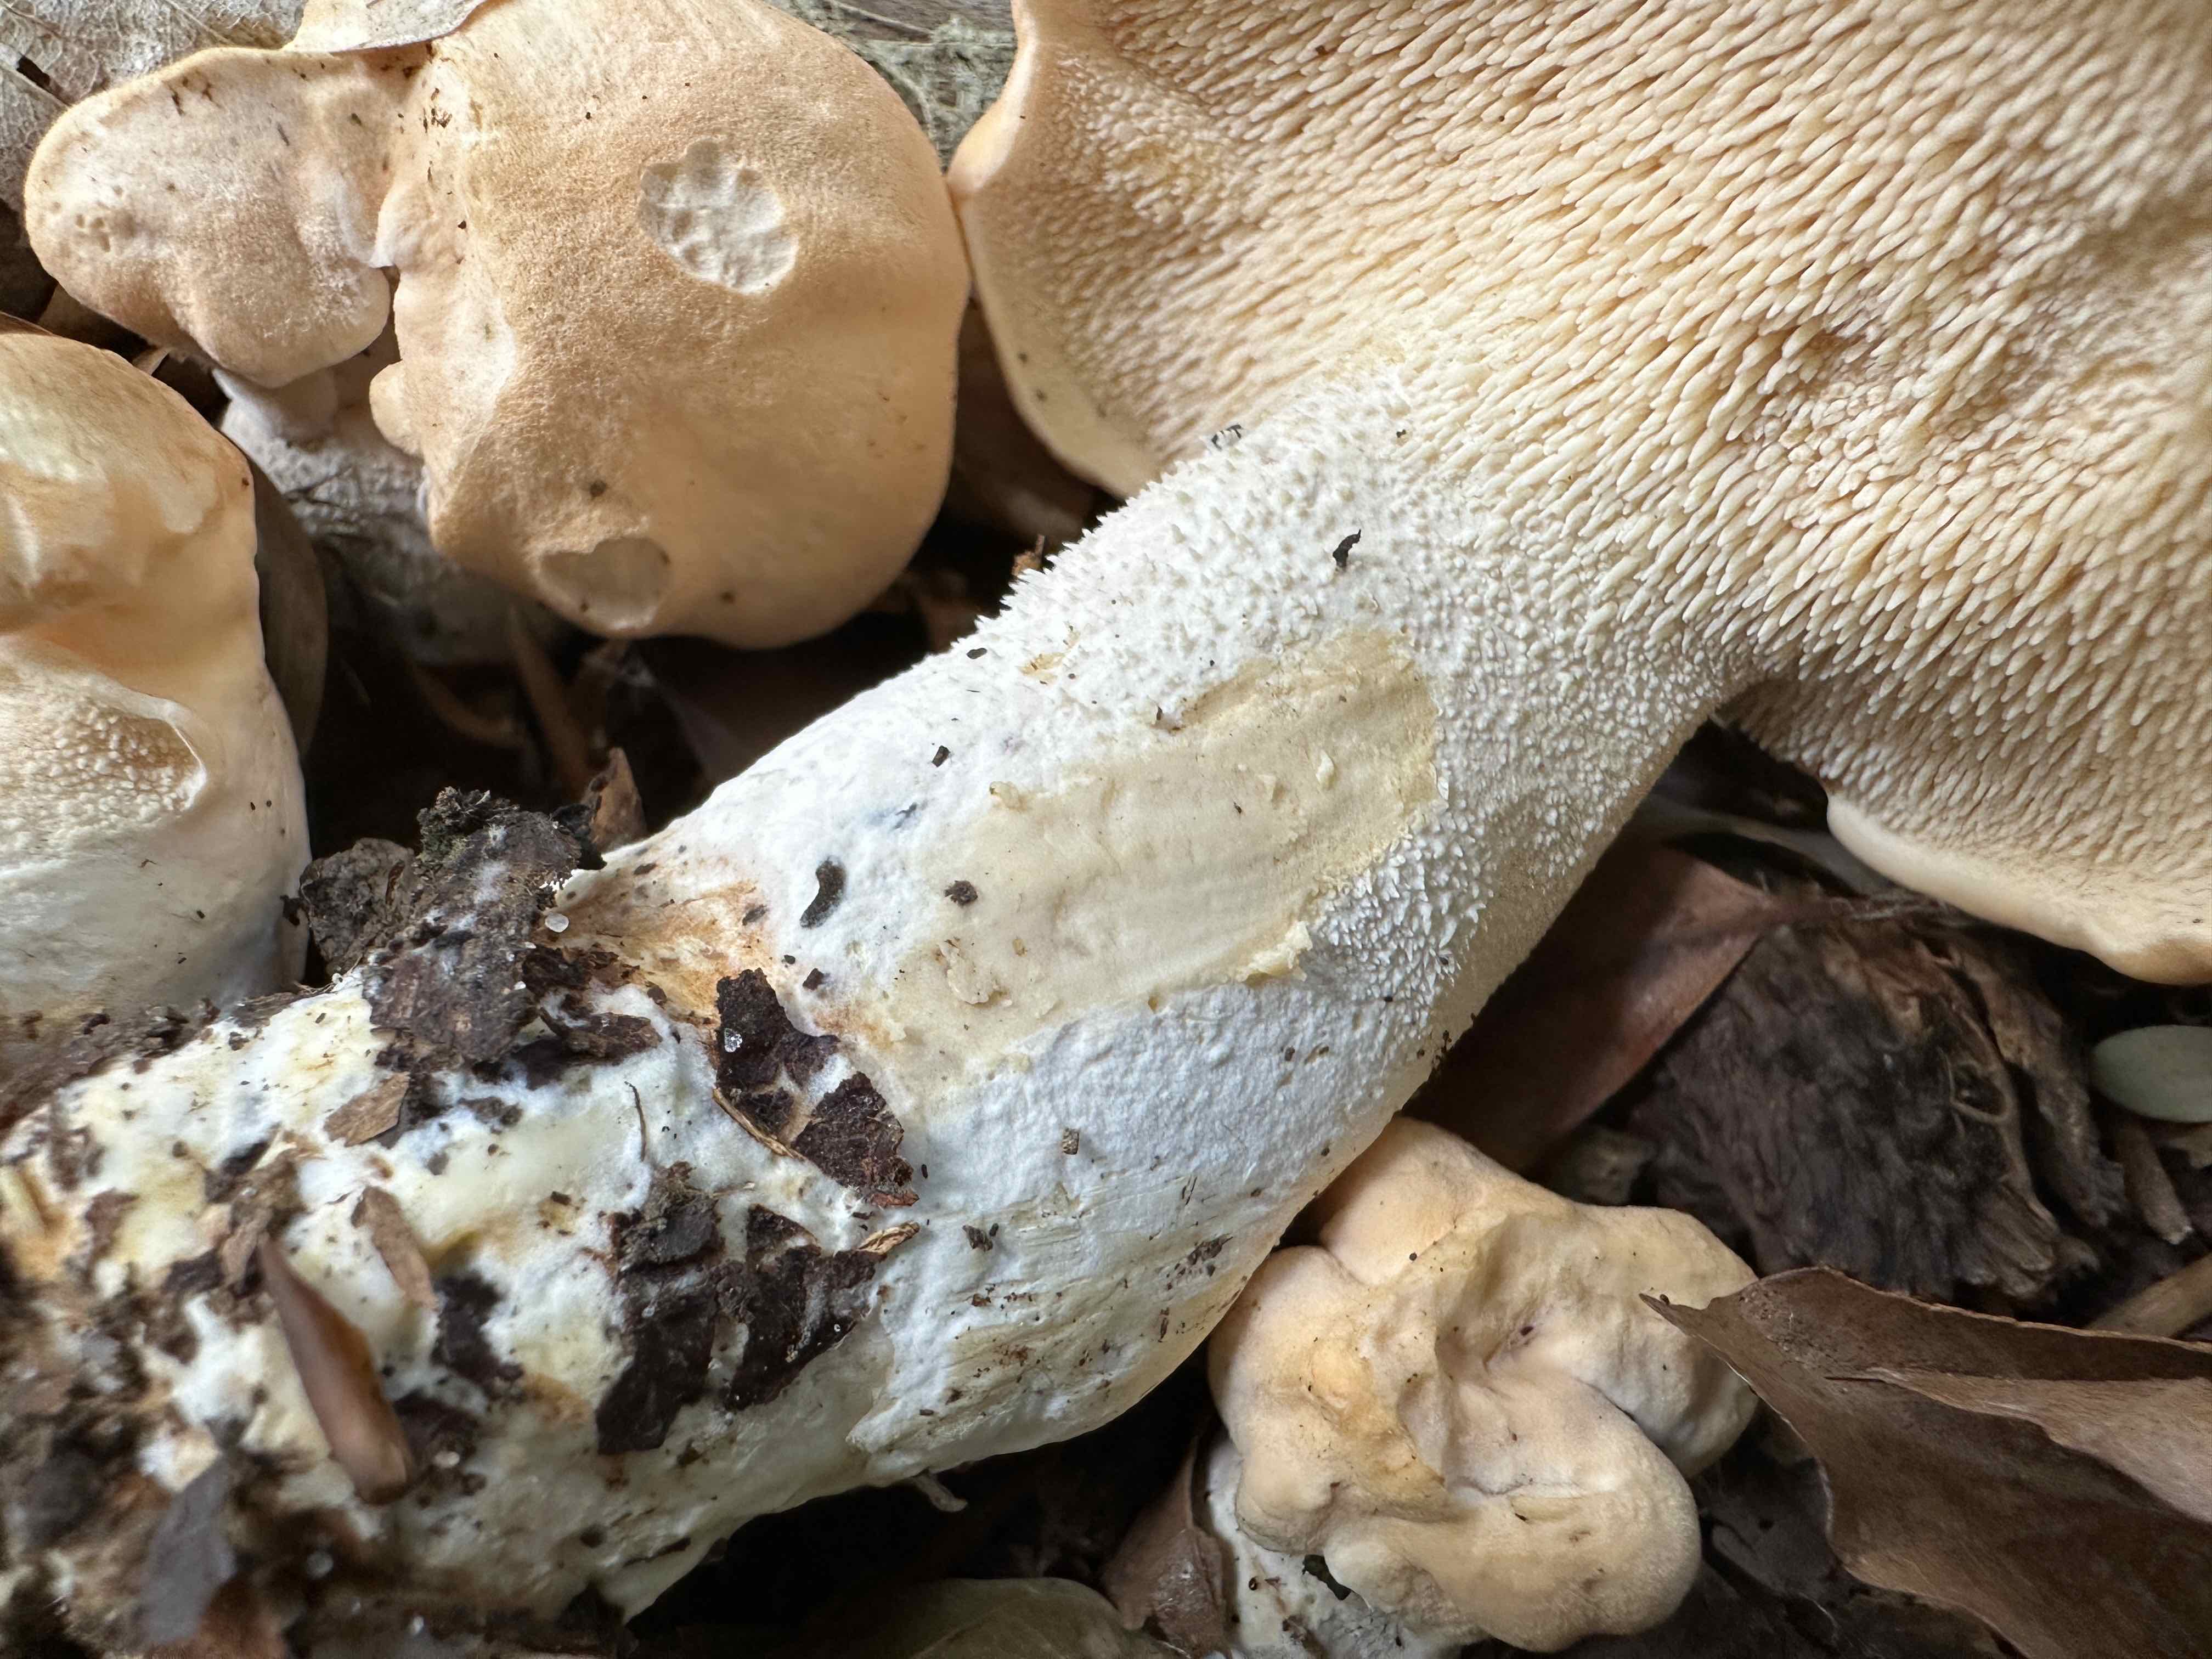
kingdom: Fungi
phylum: Basidiomycota
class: Agaricomycetes
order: Cantharellales
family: Hydnaceae
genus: Hydnum
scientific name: Hydnum slovenicum
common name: slovensk pigsvamp
